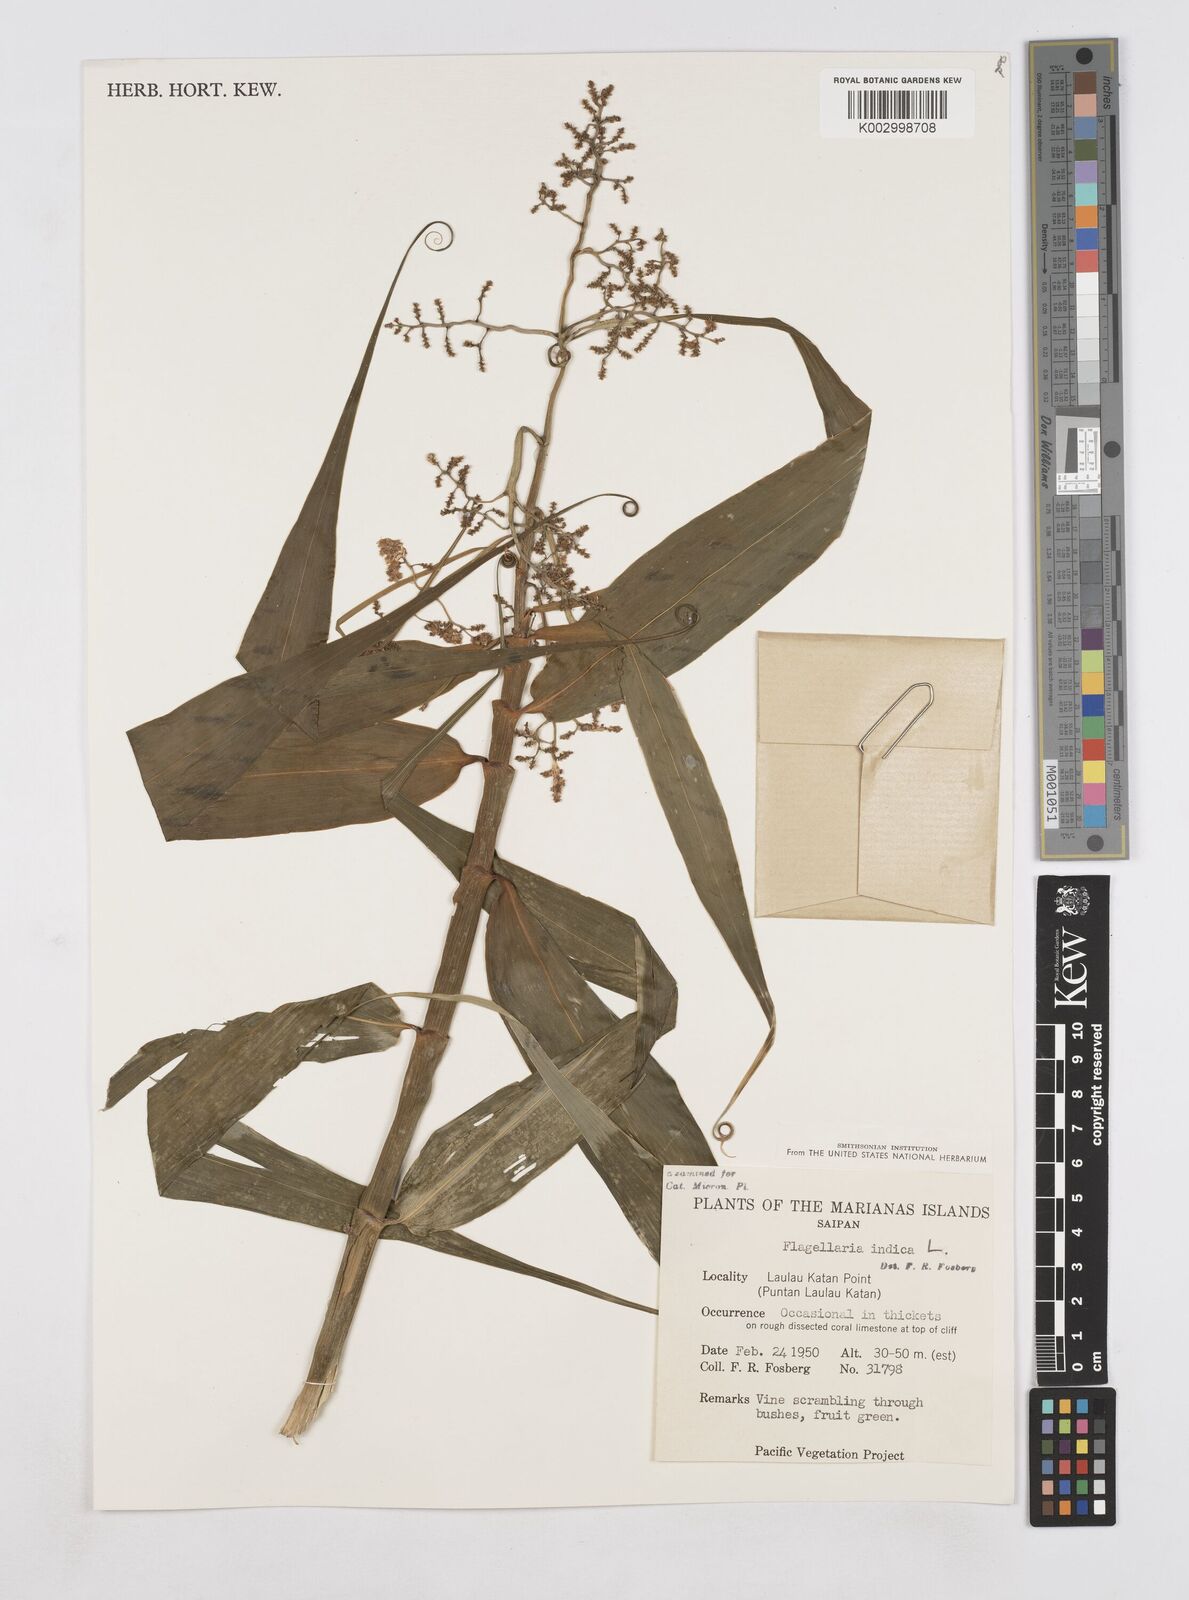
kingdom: Plantae
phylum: Tracheophyta
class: Liliopsida
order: Poales
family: Flagellariaceae
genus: Flagellaria
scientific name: Flagellaria indica
